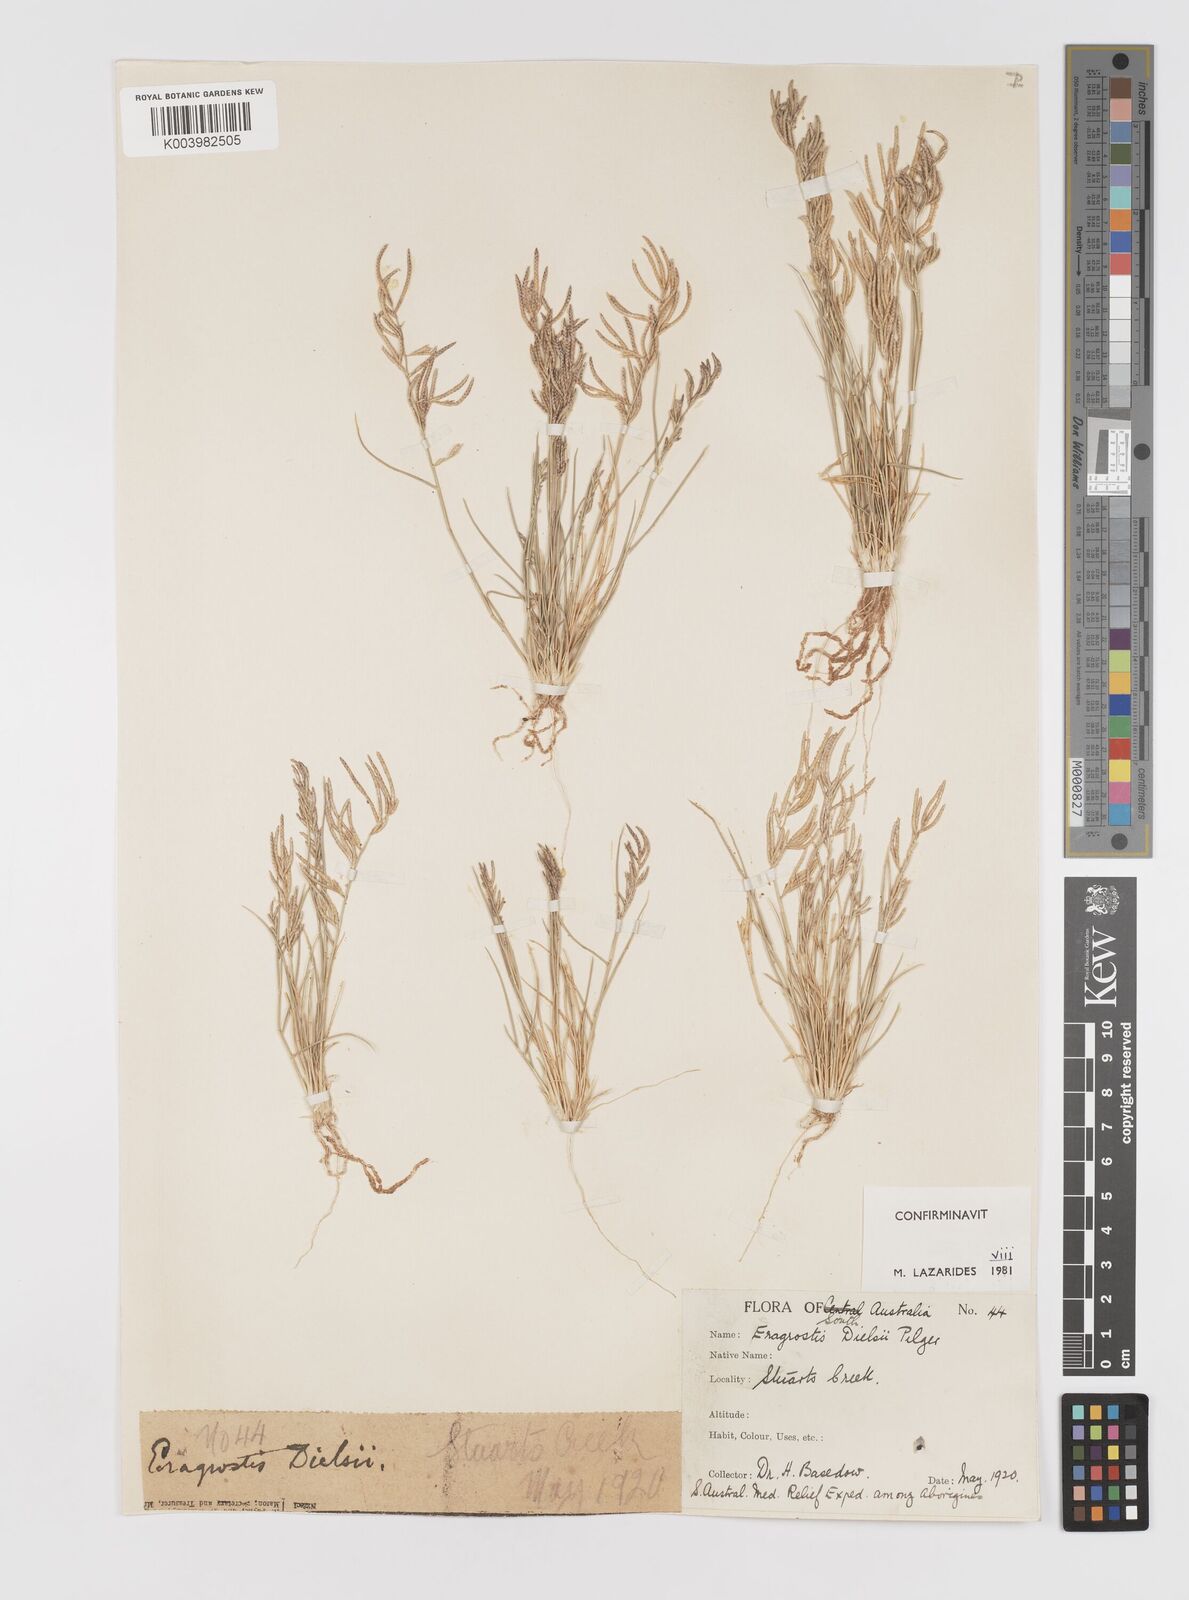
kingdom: Plantae
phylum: Tracheophyta
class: Liliopsida
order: Poales
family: Poaceae
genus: Eragrostis
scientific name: Eragrostis dielsii
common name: Lovegrass
